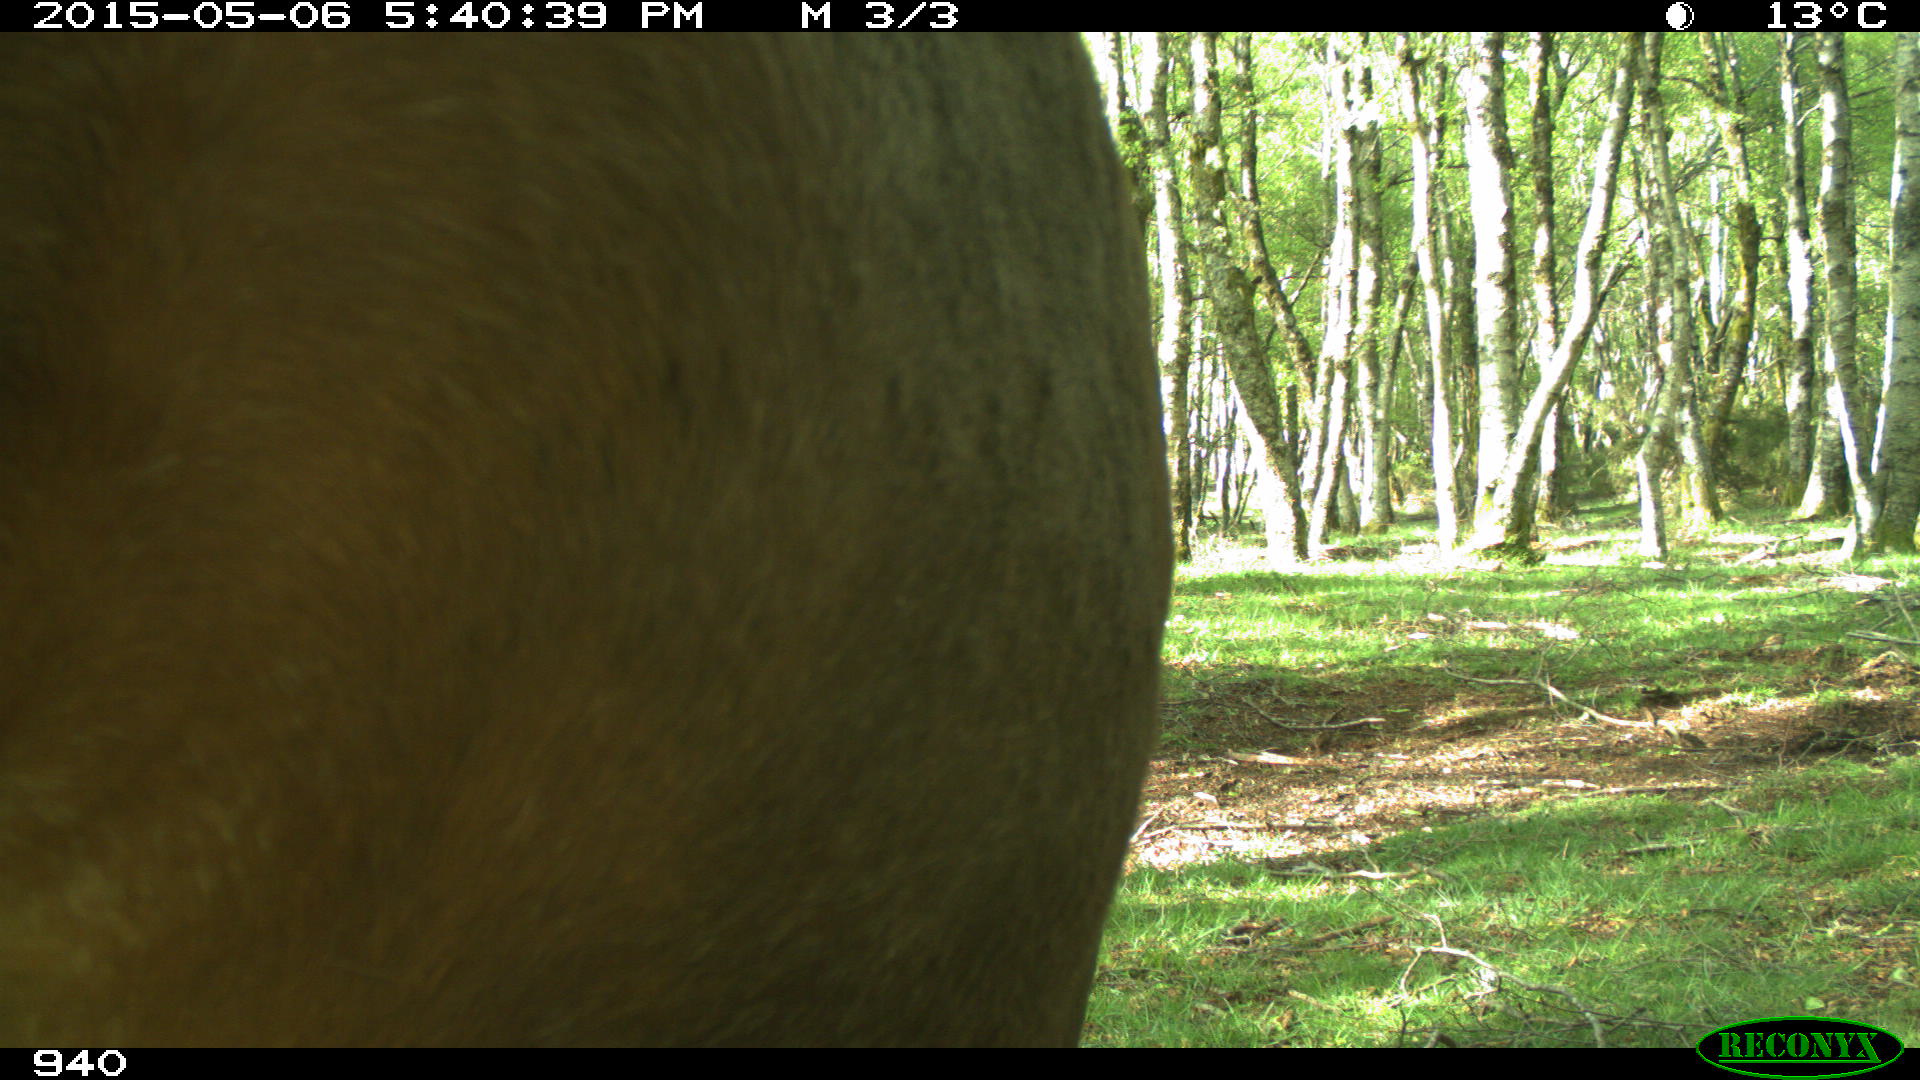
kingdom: Animalia
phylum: Chordata
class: Mammalia
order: Perissodactyla
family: Equidae
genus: Equus
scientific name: Equus caballus
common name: Horse
